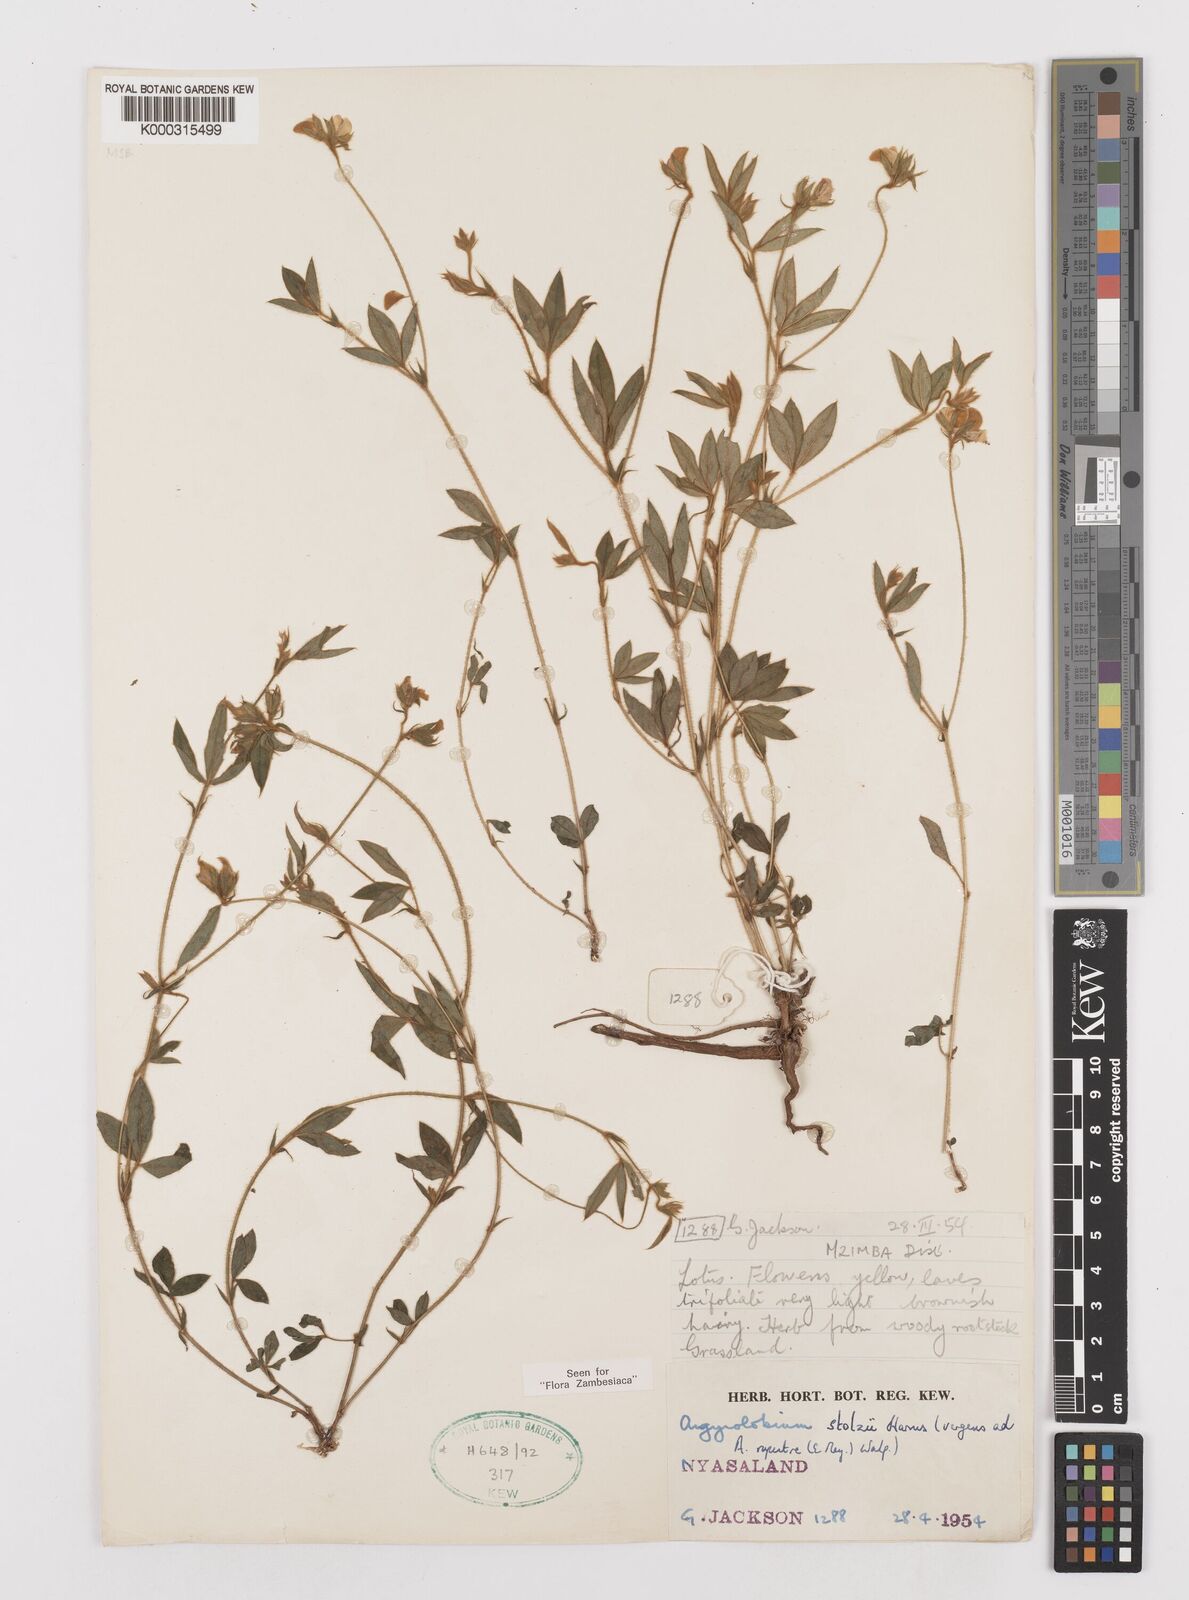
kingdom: Plantae
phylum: Tracheophyta
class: Magnoliopsida
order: Fabales
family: Fabaceae
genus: Argyrolobium
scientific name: Argyrolobium stolzii
